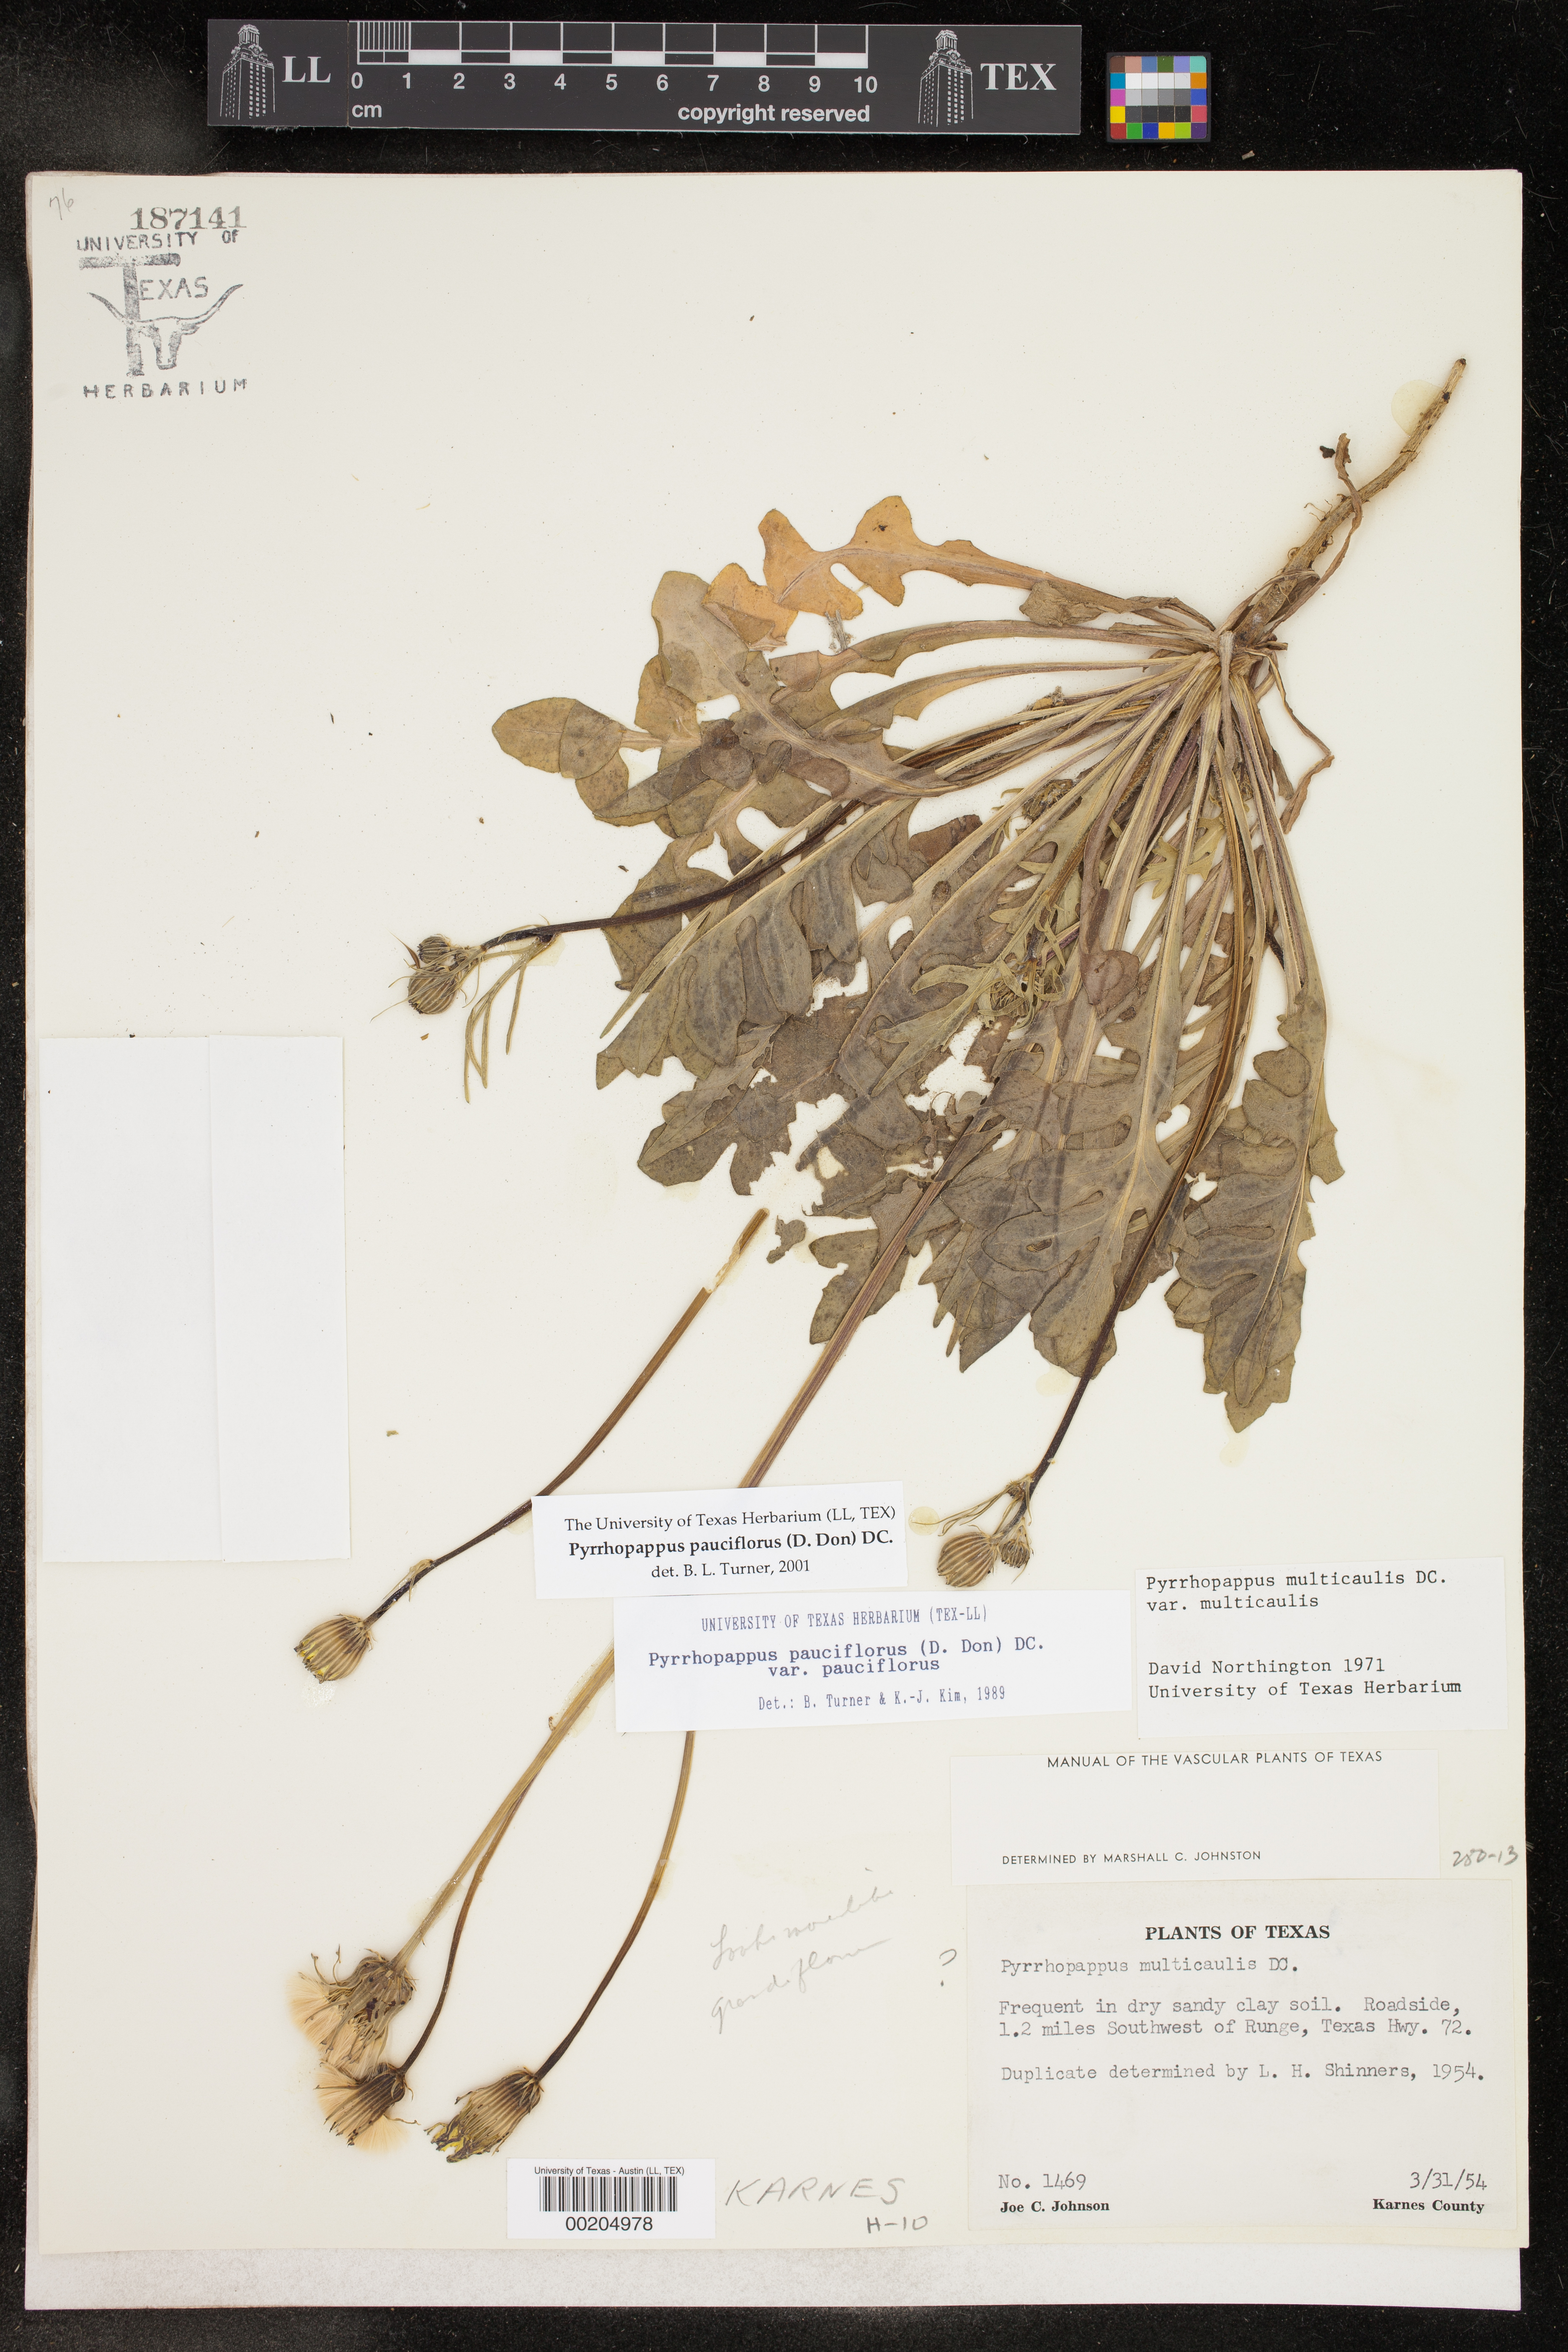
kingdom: Plantae
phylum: Tracheophyta
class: Magnoliopsida
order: Asterales
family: Asteraceae
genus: Pyrrhopappus
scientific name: Pyrrhopappus pauciflorus
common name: Texas false dandelion
